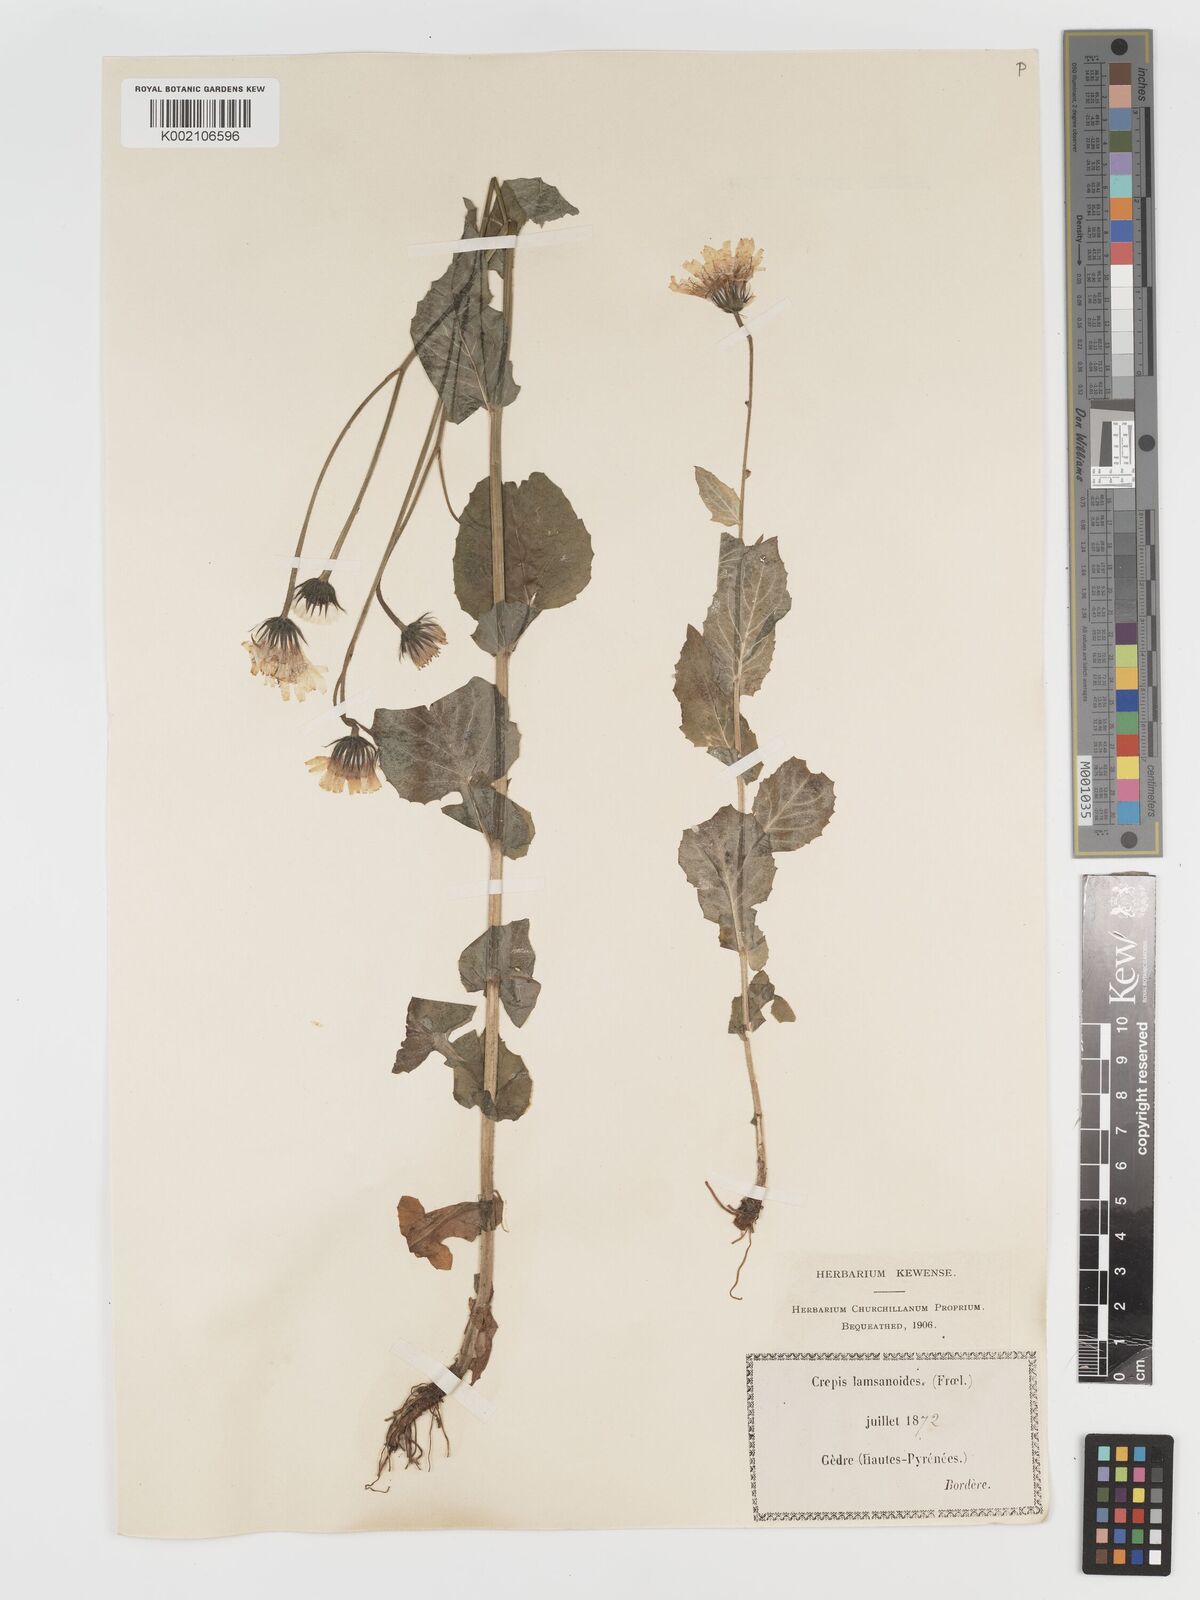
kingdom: Plantae
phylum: Tracheophyta
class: Magnoliopsida
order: Asterales
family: Asteraceae
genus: Crepis
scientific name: Crepis lampsanoides
